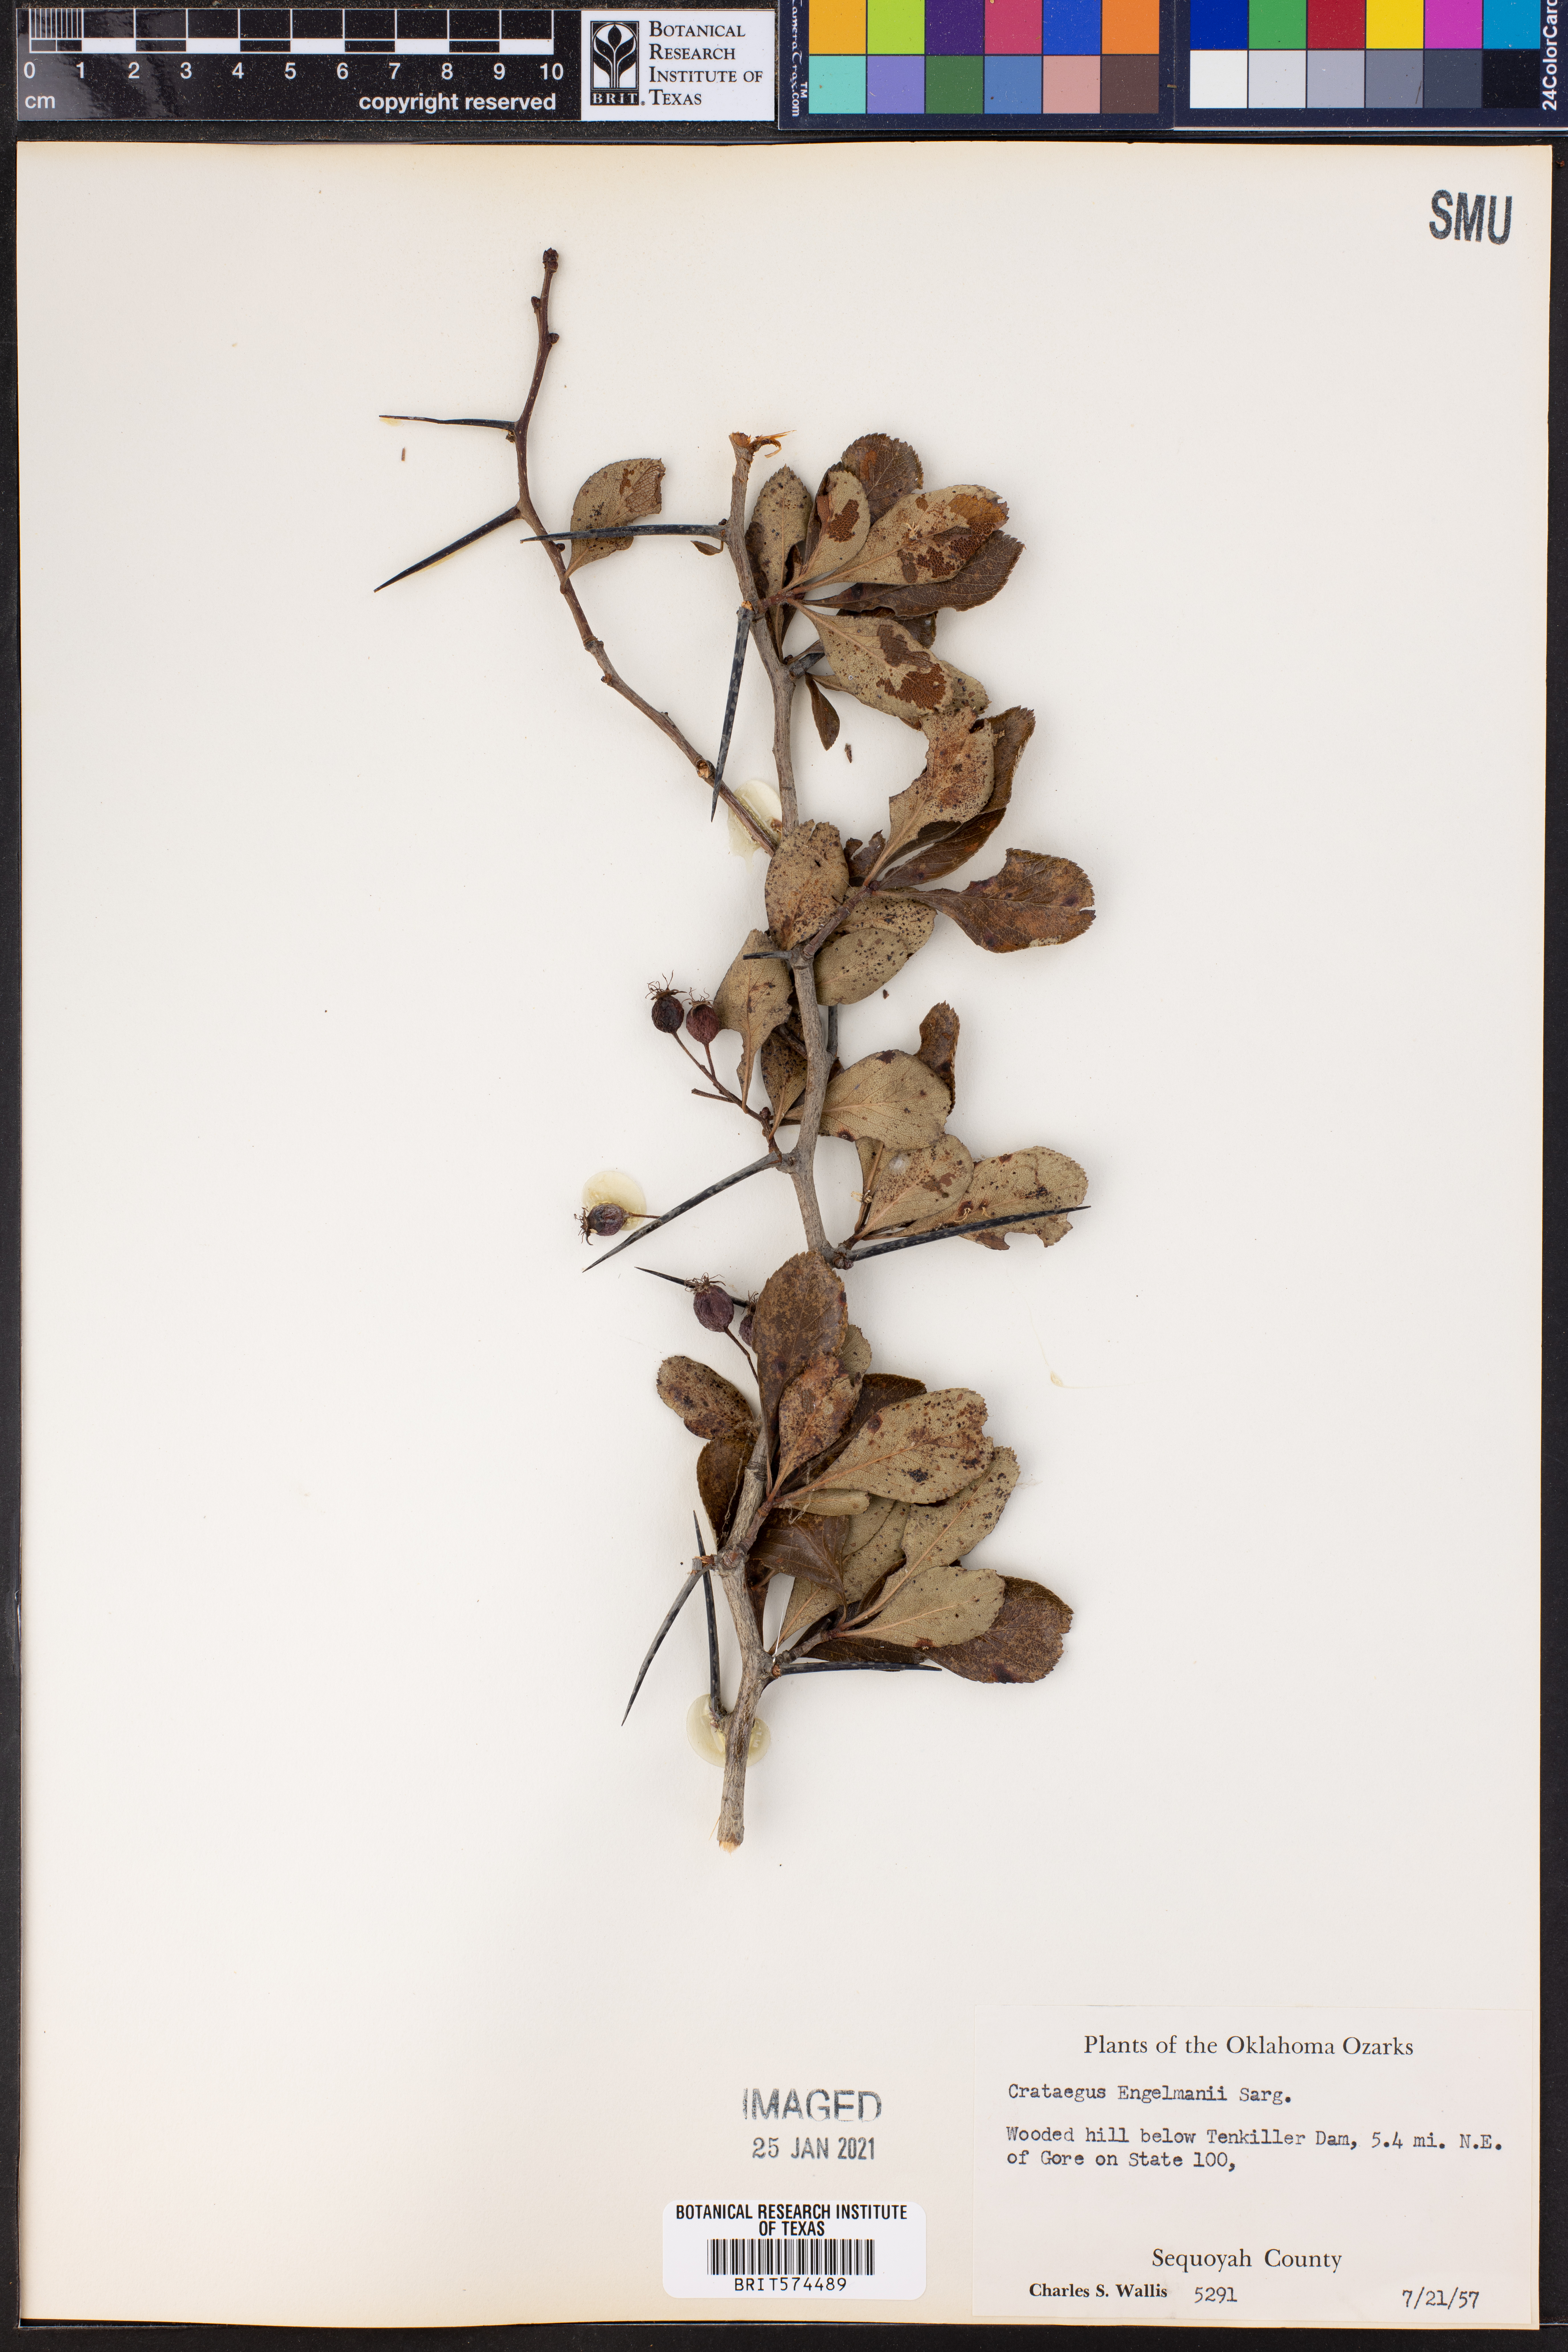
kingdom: Plantae
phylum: Tracheophyta
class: Magnoliopsida
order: Rosales
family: Rosaceae
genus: Crataegus
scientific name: Crataegus berberifolia
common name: Barberry hawthorn
